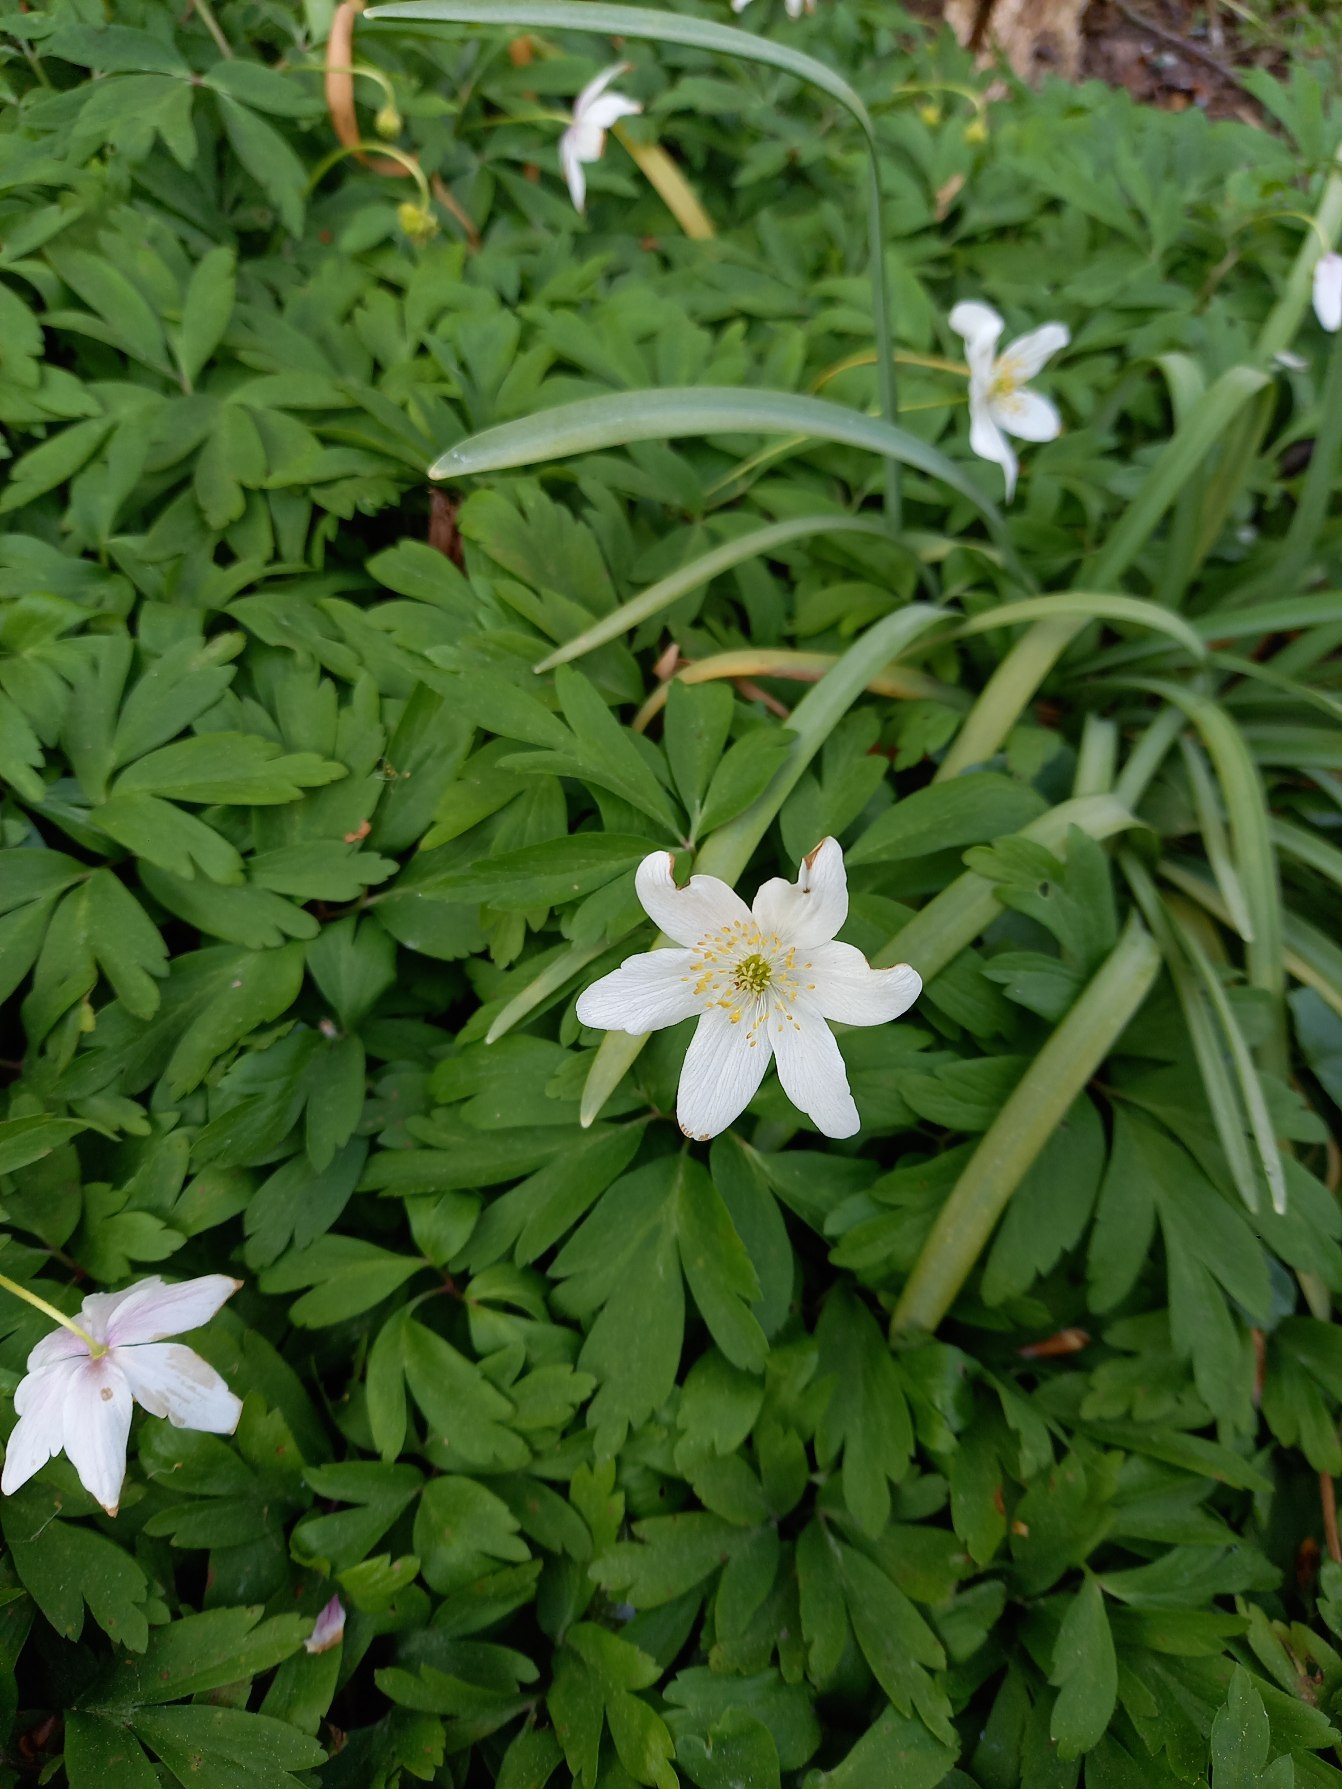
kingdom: Plantae
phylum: Tracheophyta
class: Magnoliopsida
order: Ranunculales
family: Ranunculaceae
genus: Anemone
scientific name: Anemone nemorosa
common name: Hvid anemone
